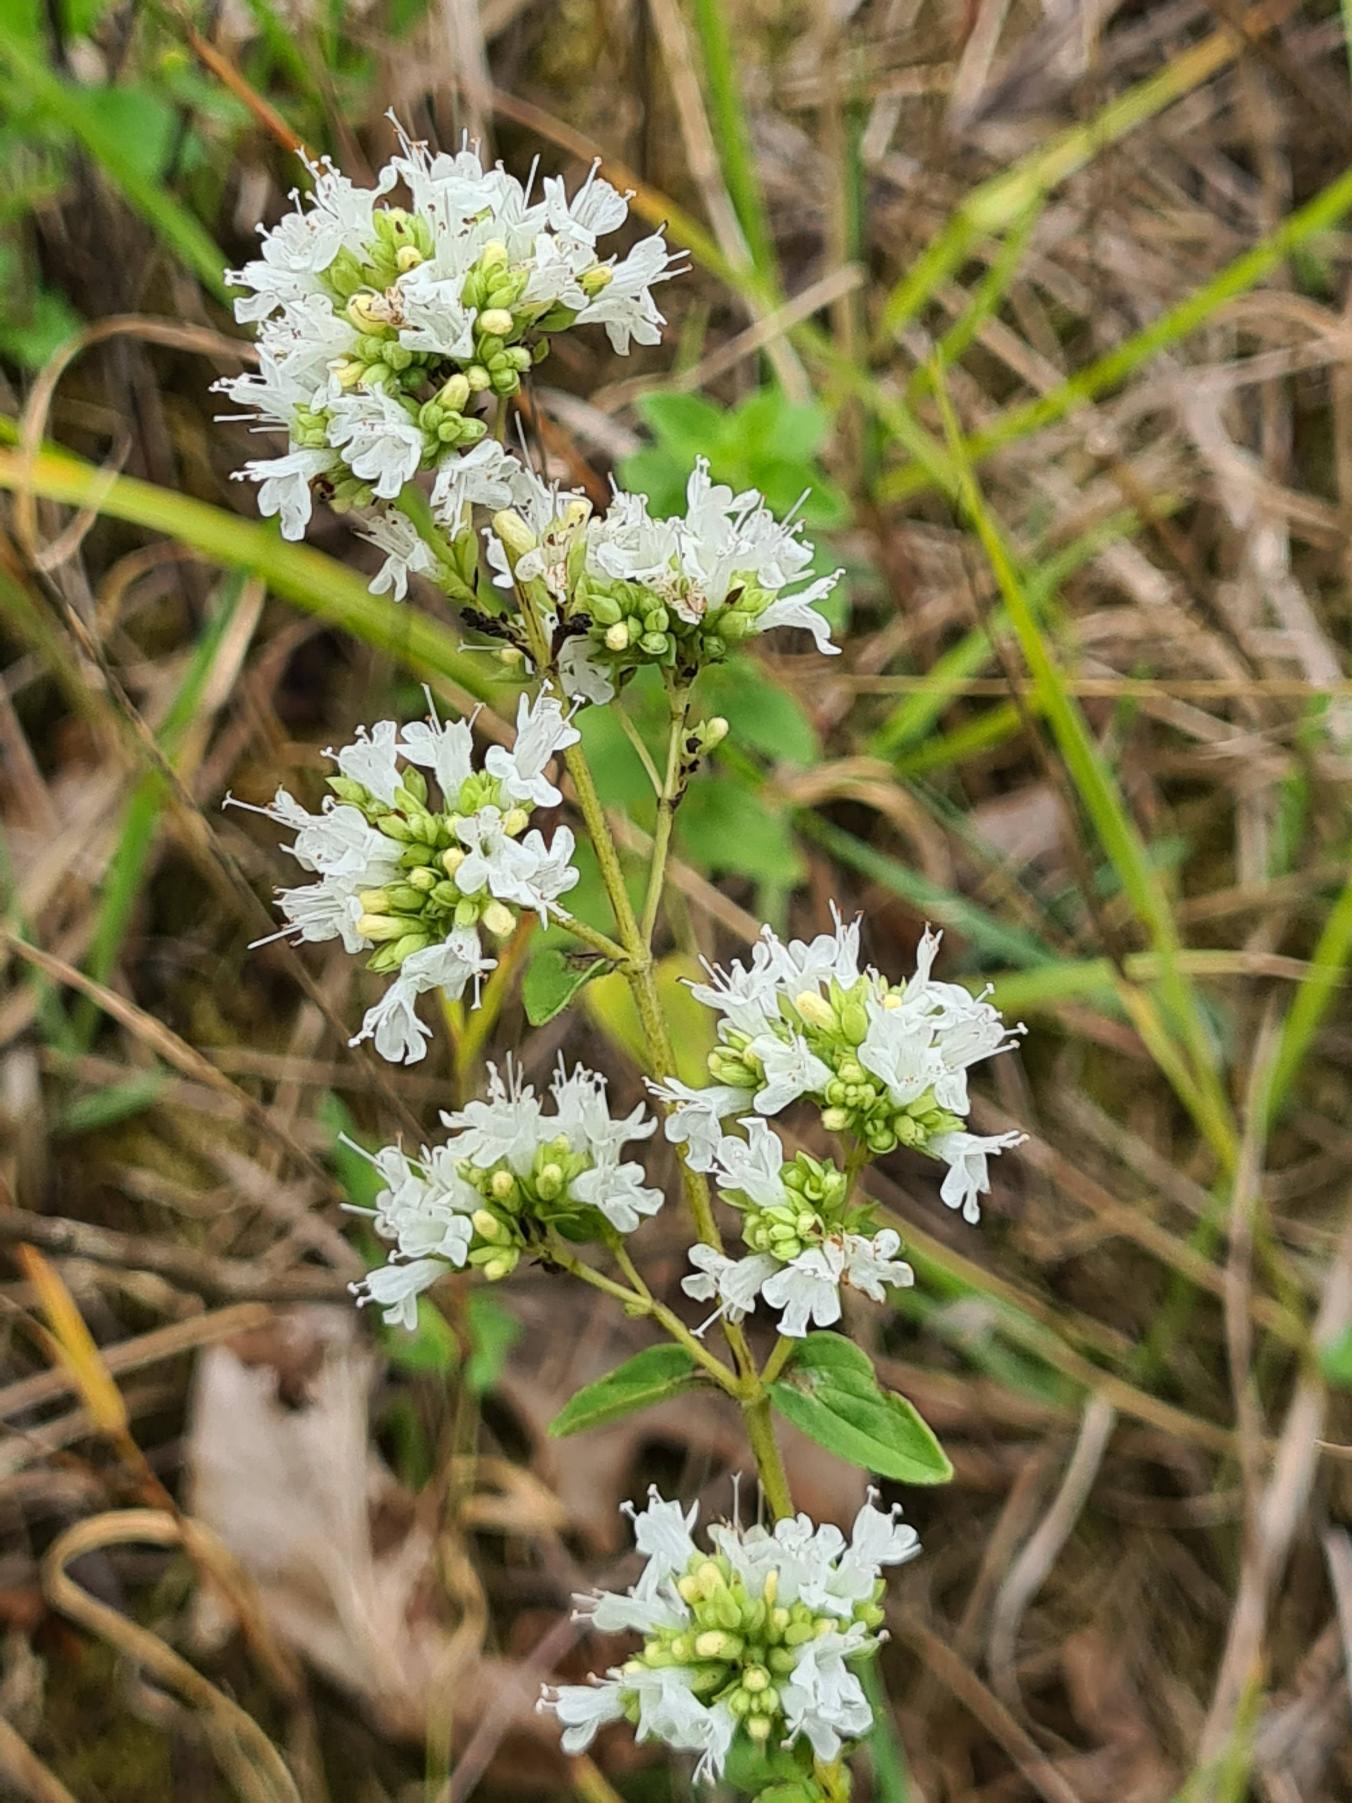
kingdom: Plantae
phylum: Tracheophyta
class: Magnoliopsida
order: Lamiales
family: Lamiaceae
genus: Origanum
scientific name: Origanum vulgare
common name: Merian
